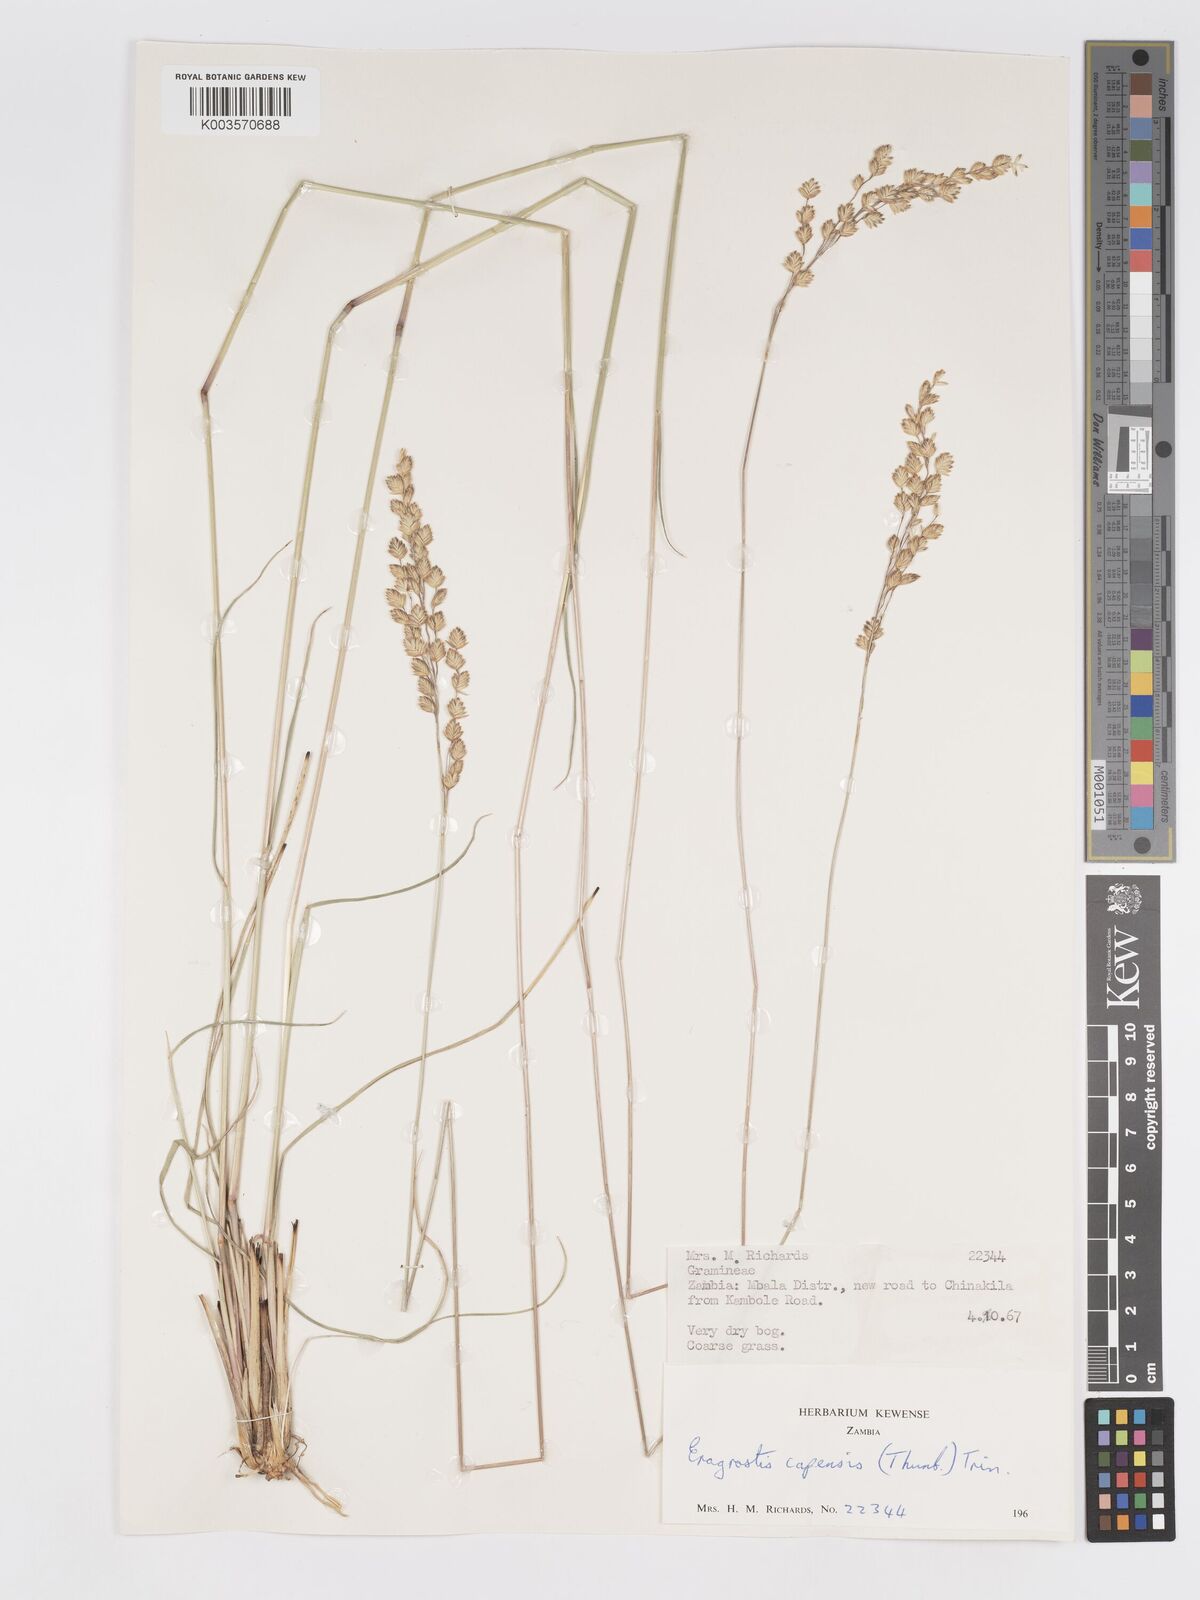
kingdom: Plantae
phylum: Tracheophyta
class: Liliopsida
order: Poales
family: Poaceae
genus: Eragrostis
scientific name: Eragrostis capensis
